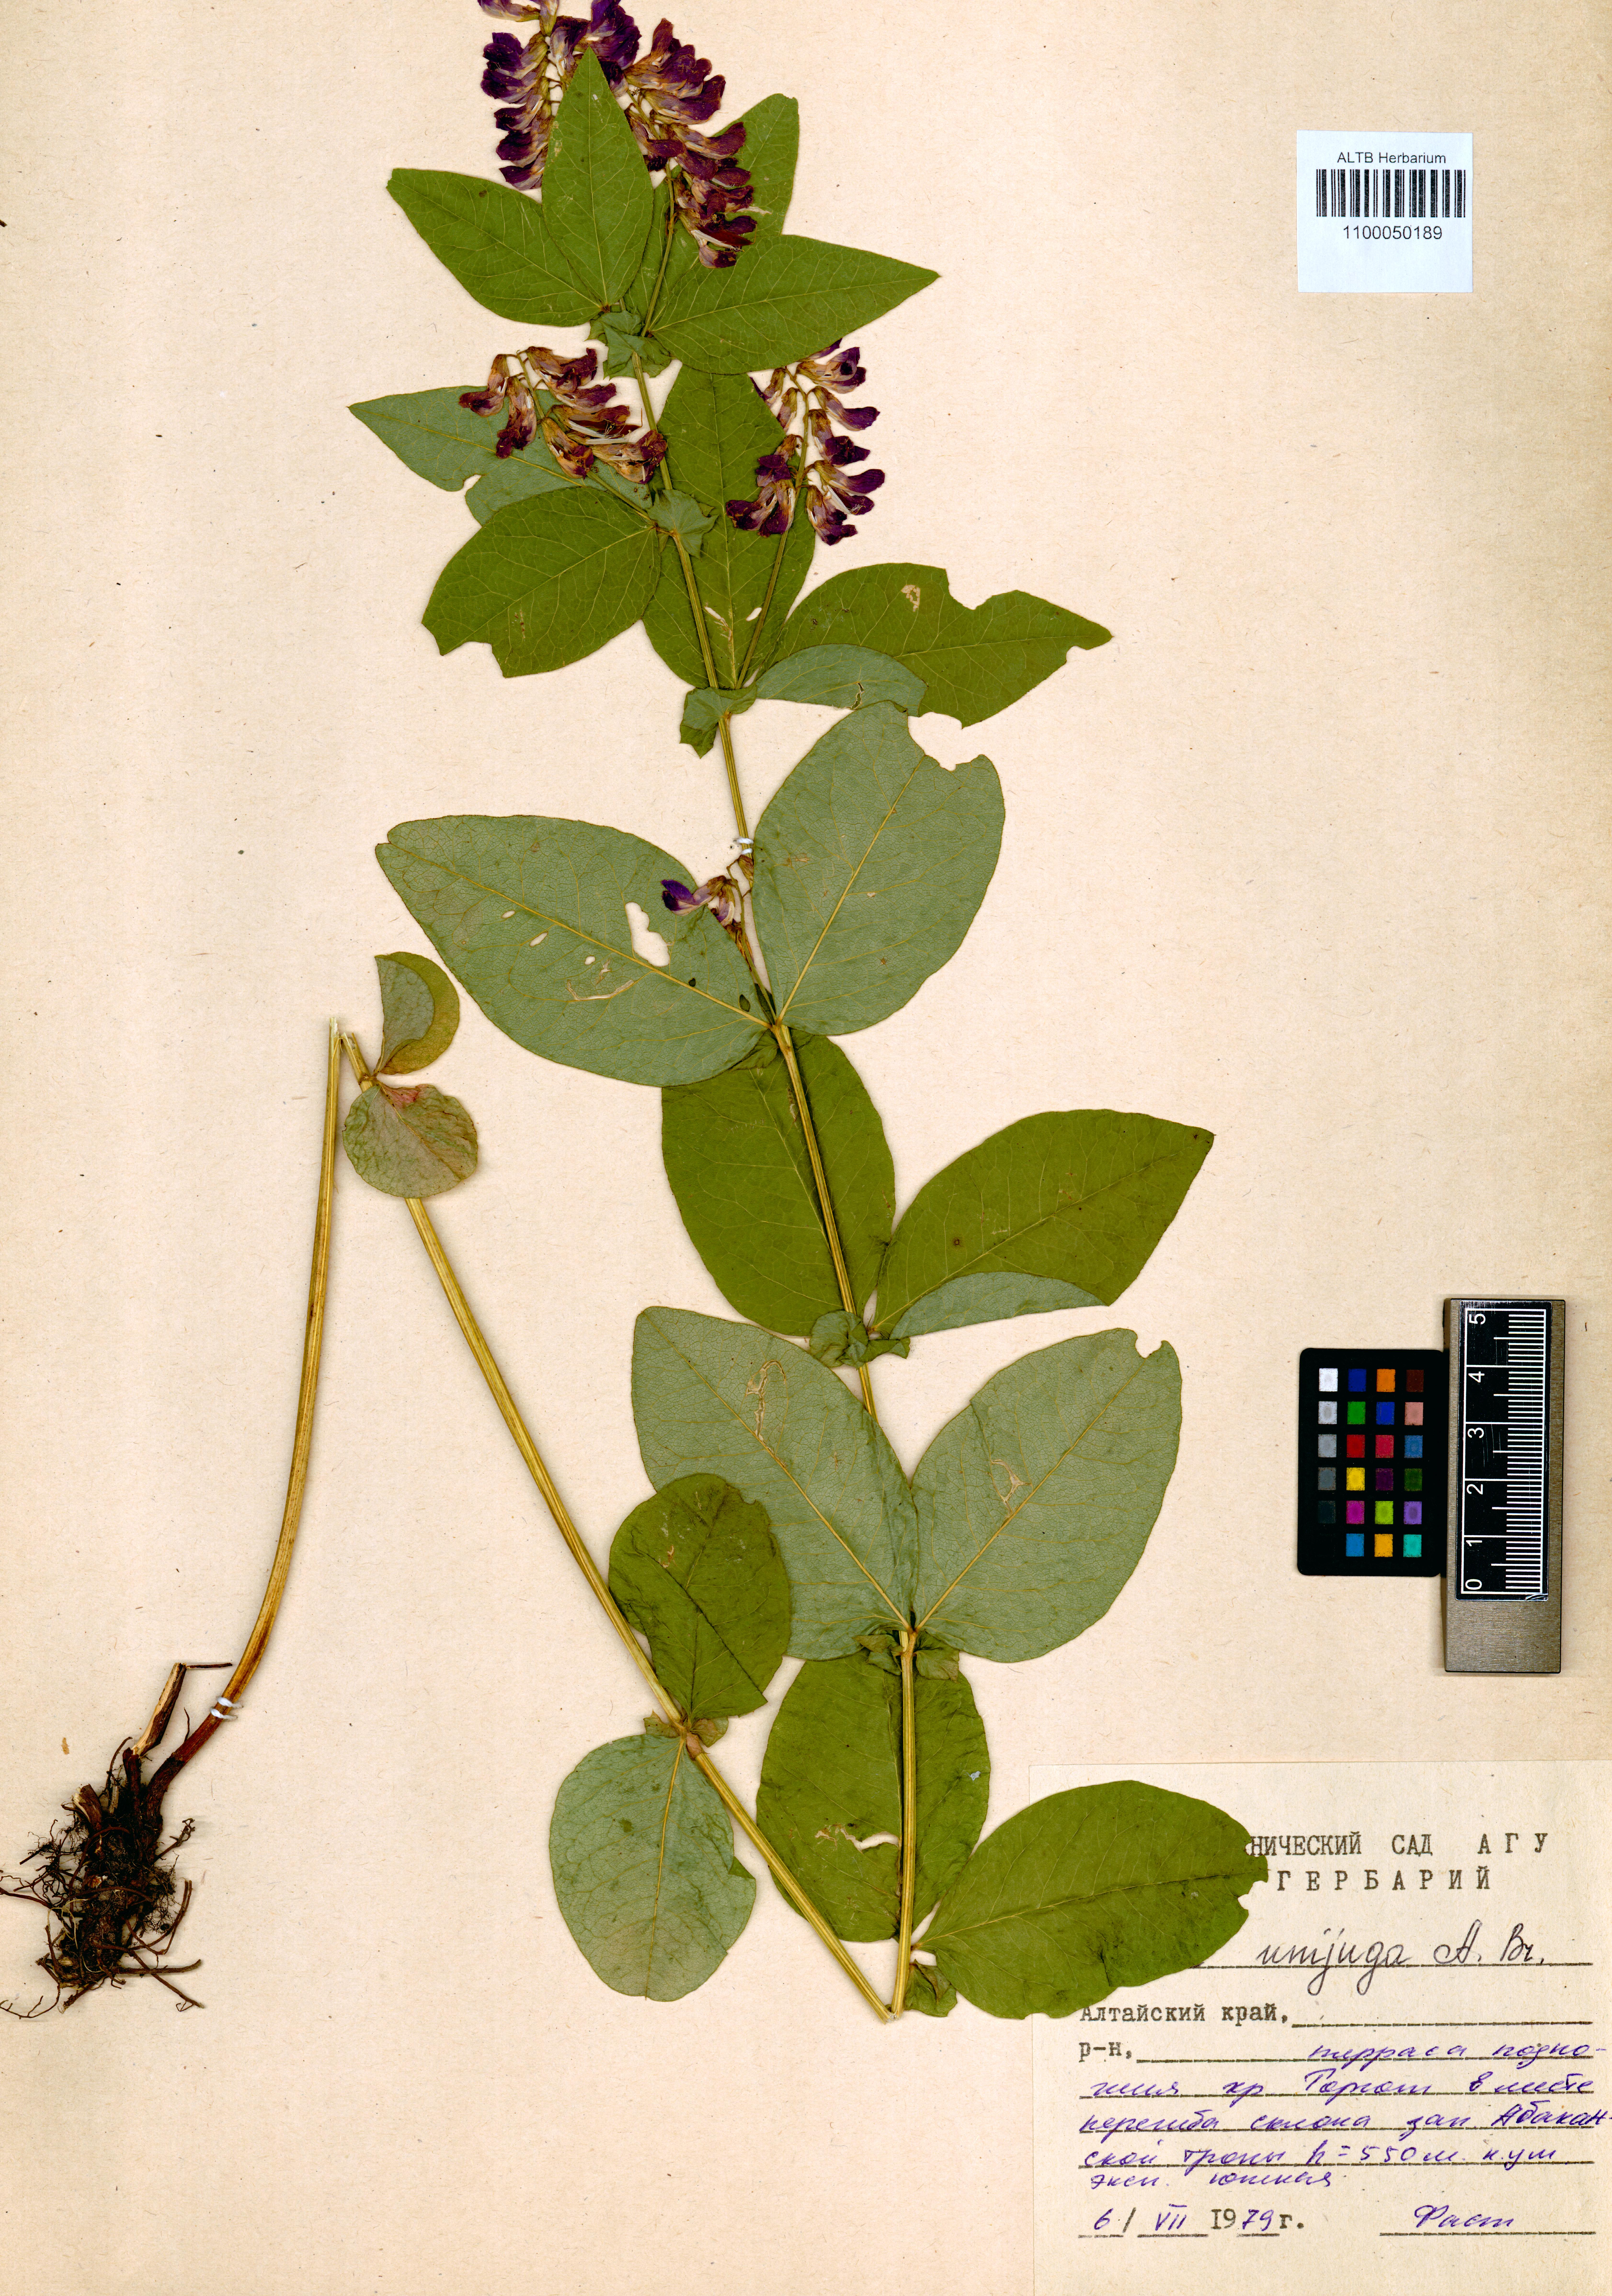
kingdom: Plantae
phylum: Tracheophyta
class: Magnoliopsida
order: Fabales
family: Fabaceae
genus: Vicia
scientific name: Vicia unijuga
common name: Two-leaf vetch
